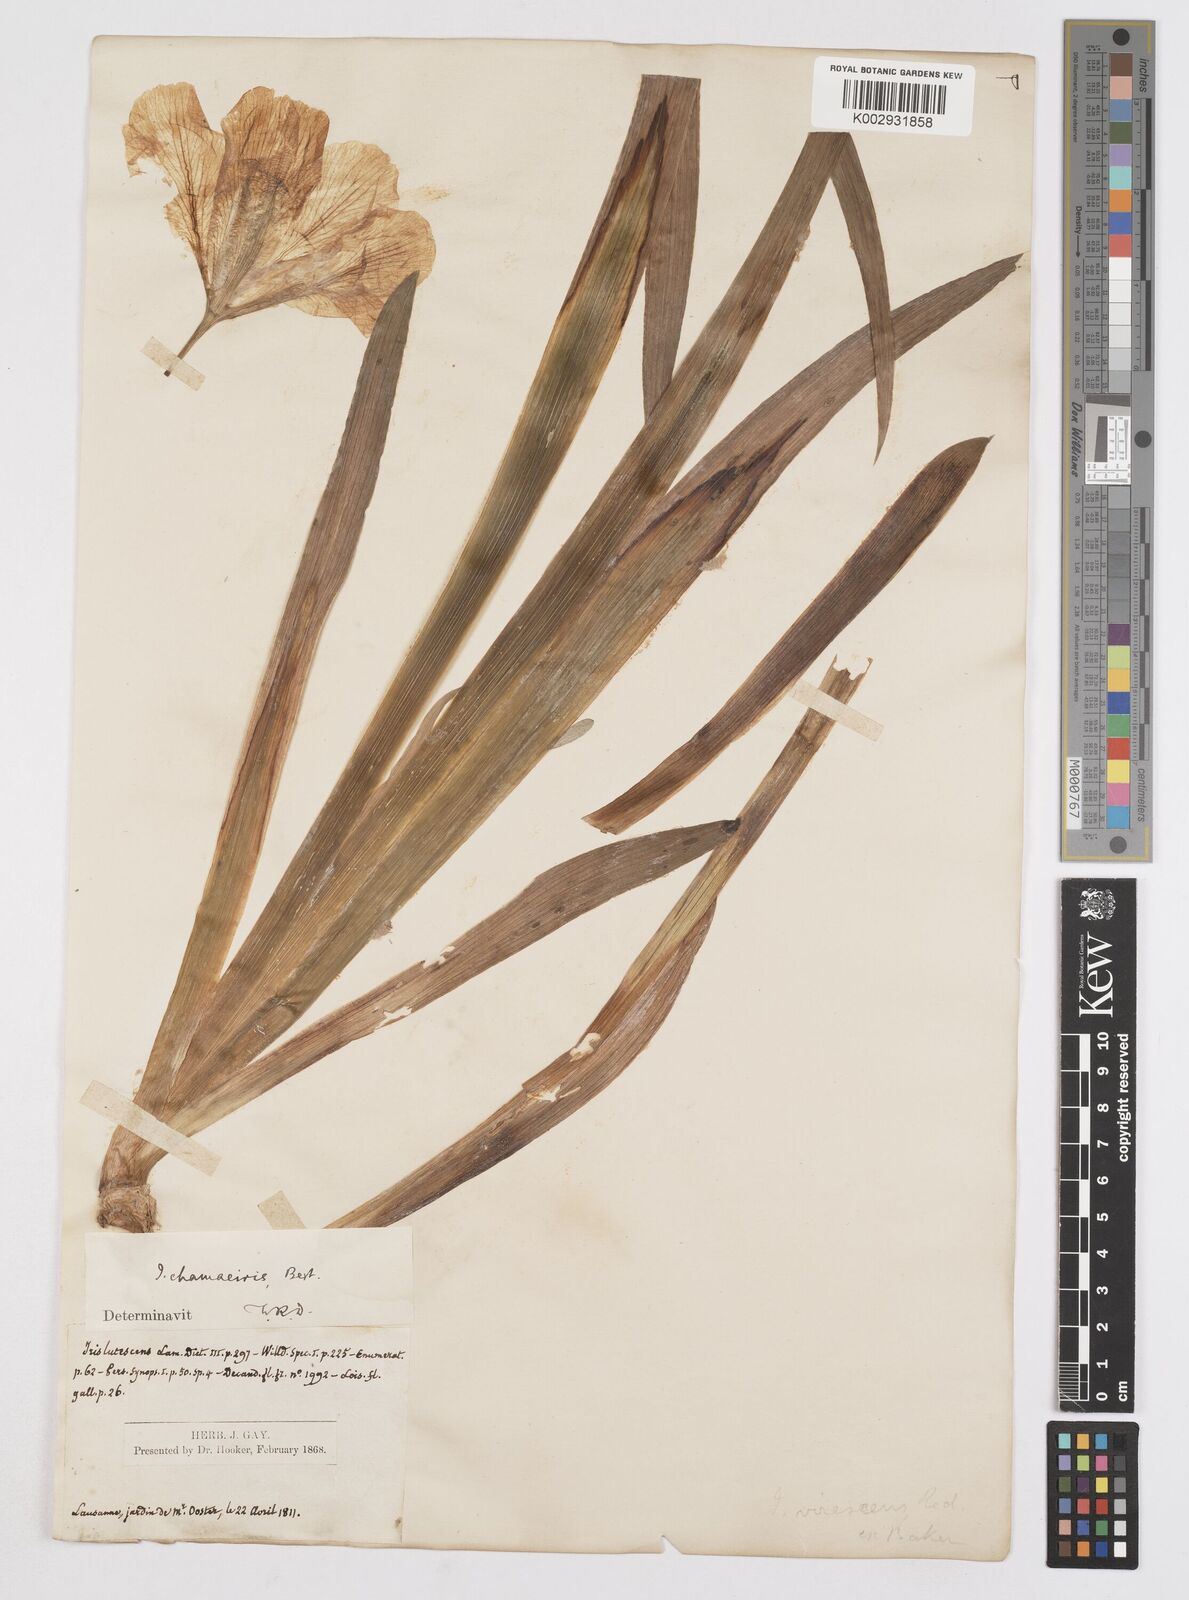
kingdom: Plantae
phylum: Tracheophyta
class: Liliopsida
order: Asparagales
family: Iridaceae
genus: Iris
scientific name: Iris lutescens
